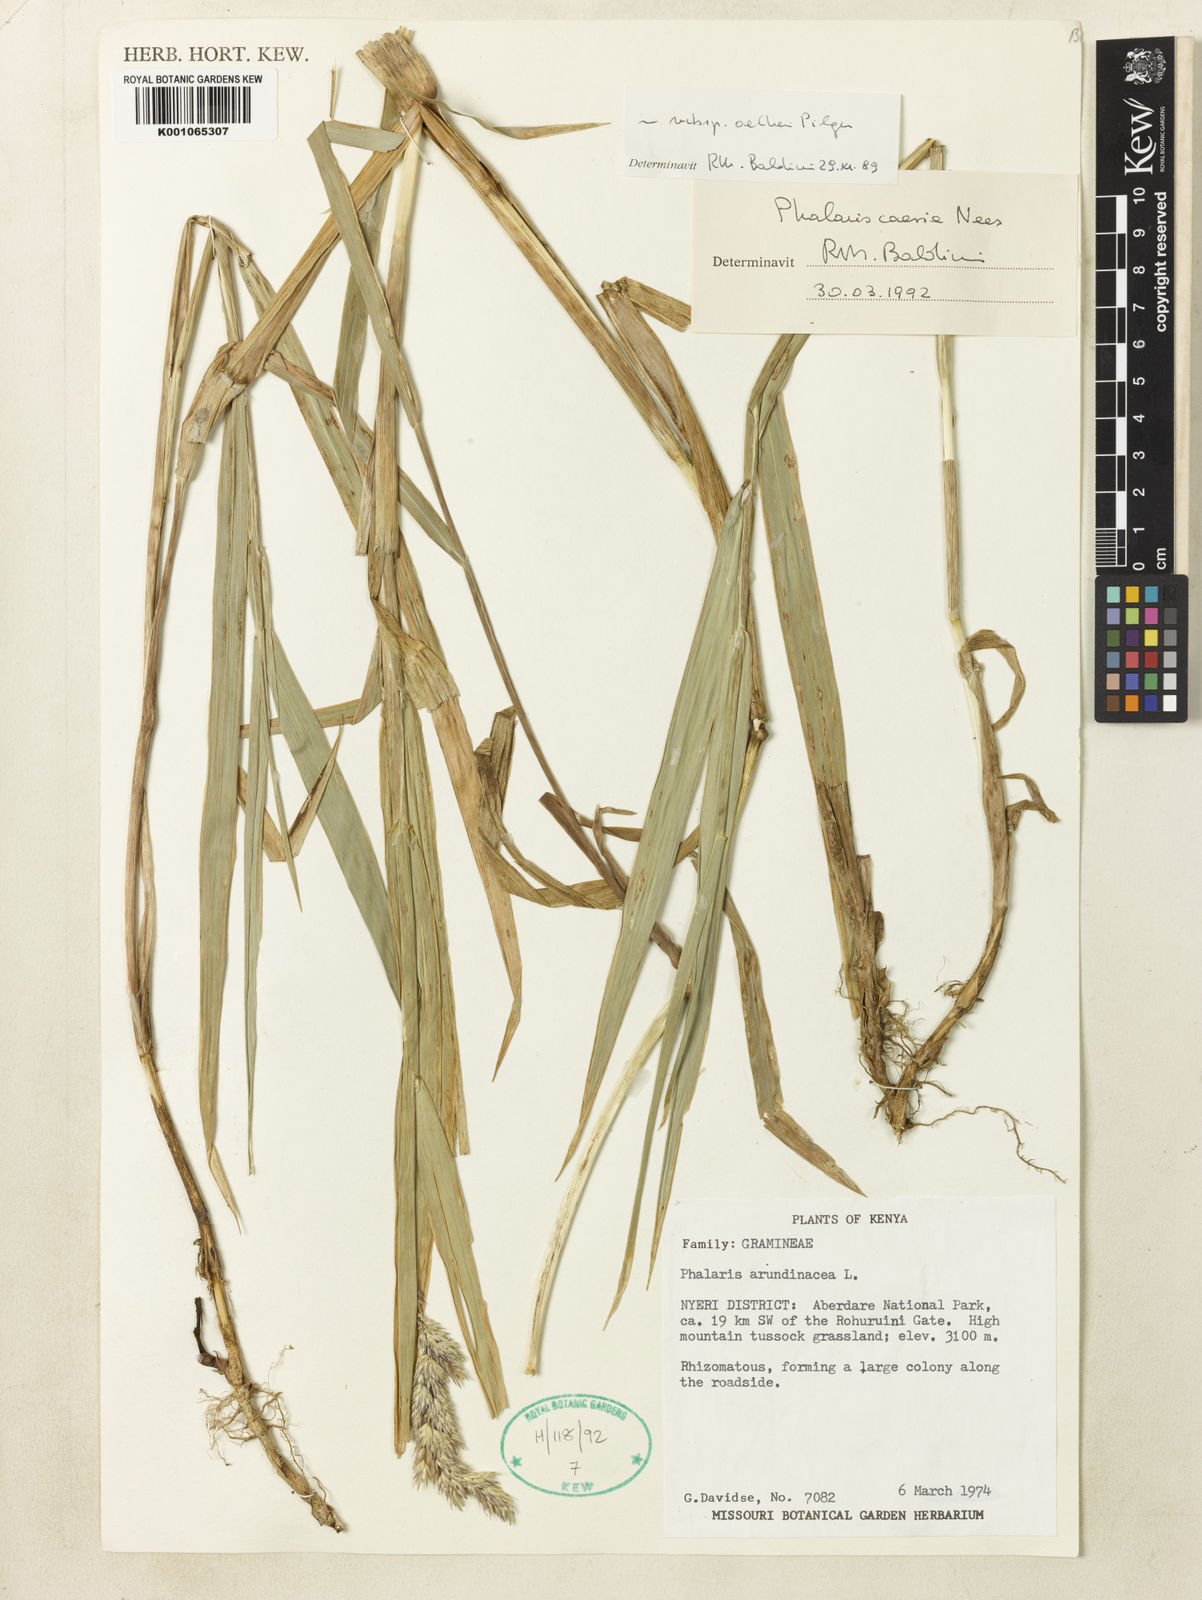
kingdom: Plantae
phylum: Tracheophyta
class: Liliopsida
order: Poales
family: Poaceae
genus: Phalaris
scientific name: Phalaris arundinacea
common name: Reed canary-grass
